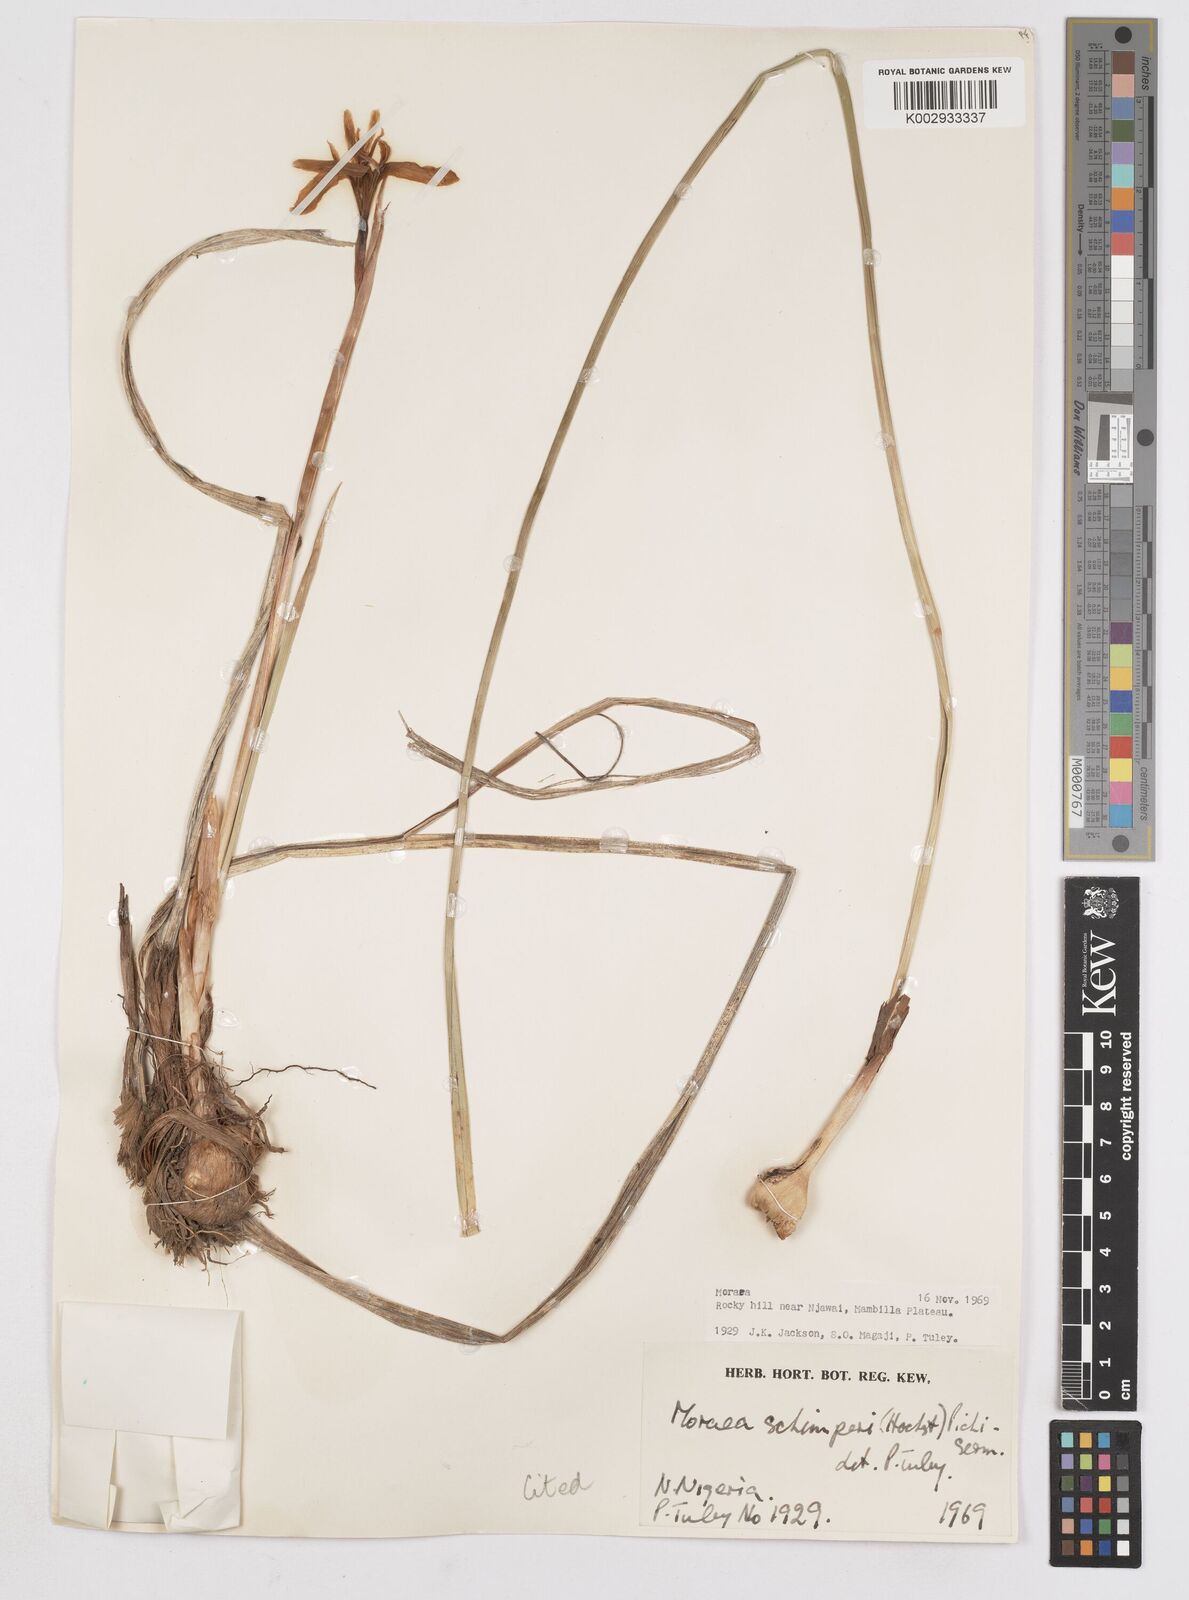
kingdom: Plantae
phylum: Tracheophyta
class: Liliopsida
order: Asparagales
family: Iridaceae
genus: Moraea
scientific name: Moraea schimperi
